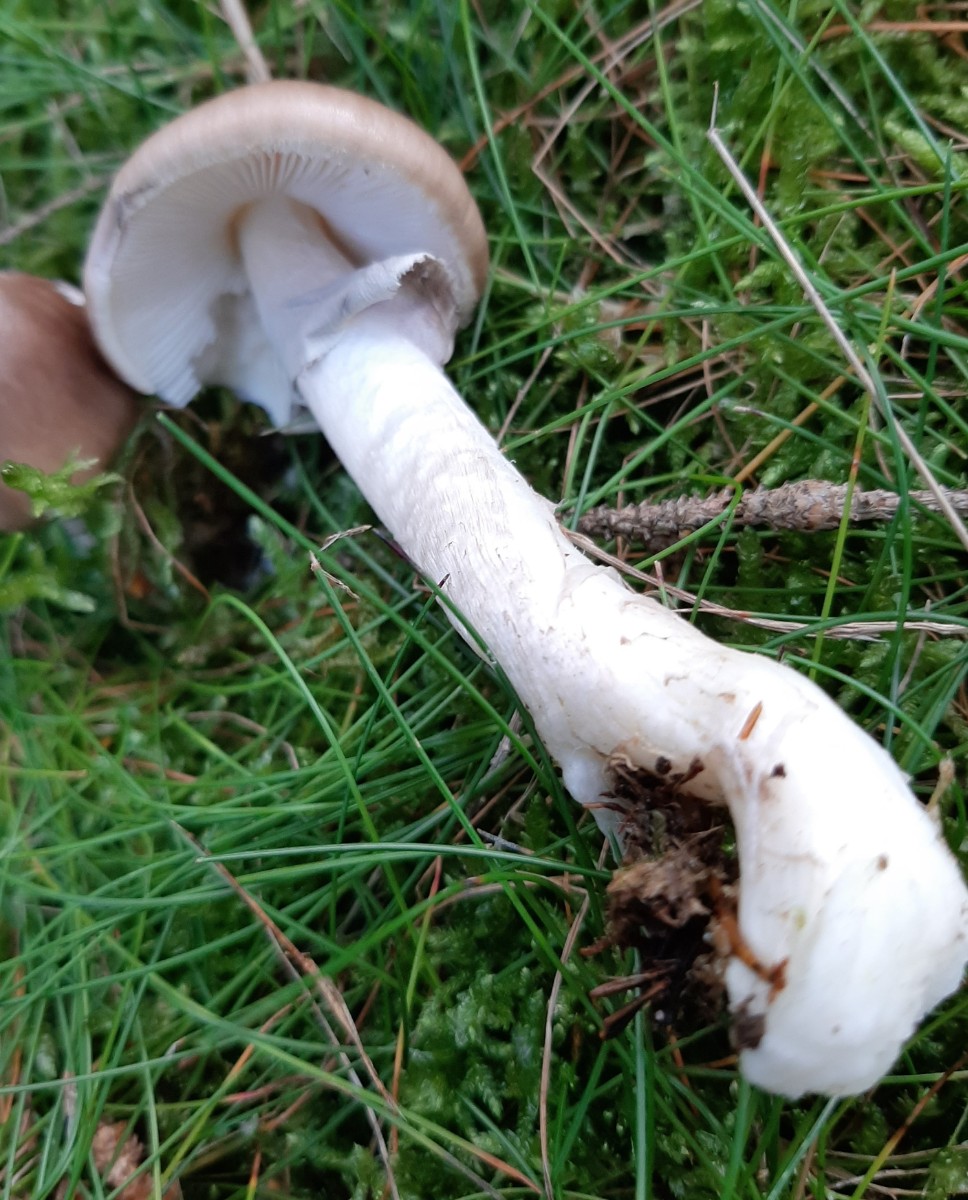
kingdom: Fungi
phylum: Basidiomycota
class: Agaricomycetes
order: Agaricales
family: Amanitaceae
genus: Amanita
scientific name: Amanita porphyria
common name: porfyr-fluesvamp
